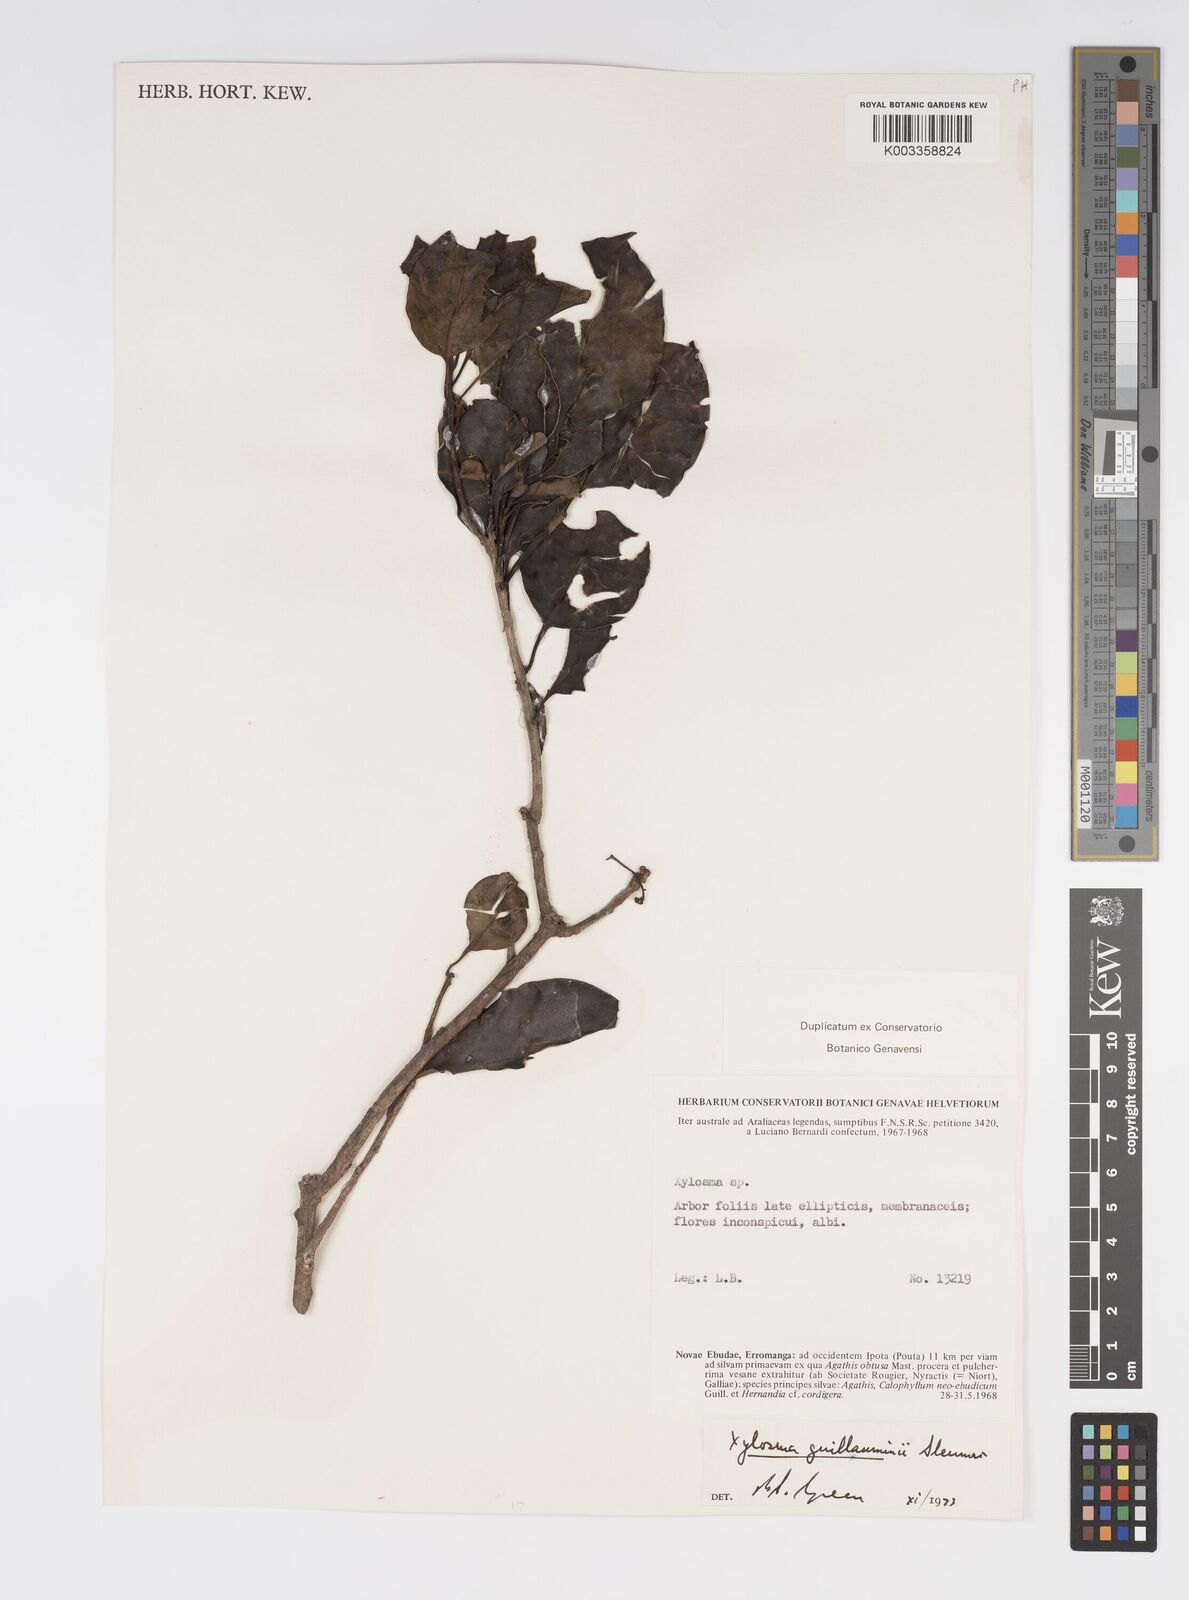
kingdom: Plantae
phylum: Tracheophyta
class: Magnoliopsida
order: Malpighiales
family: Salicaceae
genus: Xylosma
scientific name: Xylosma lifuana
